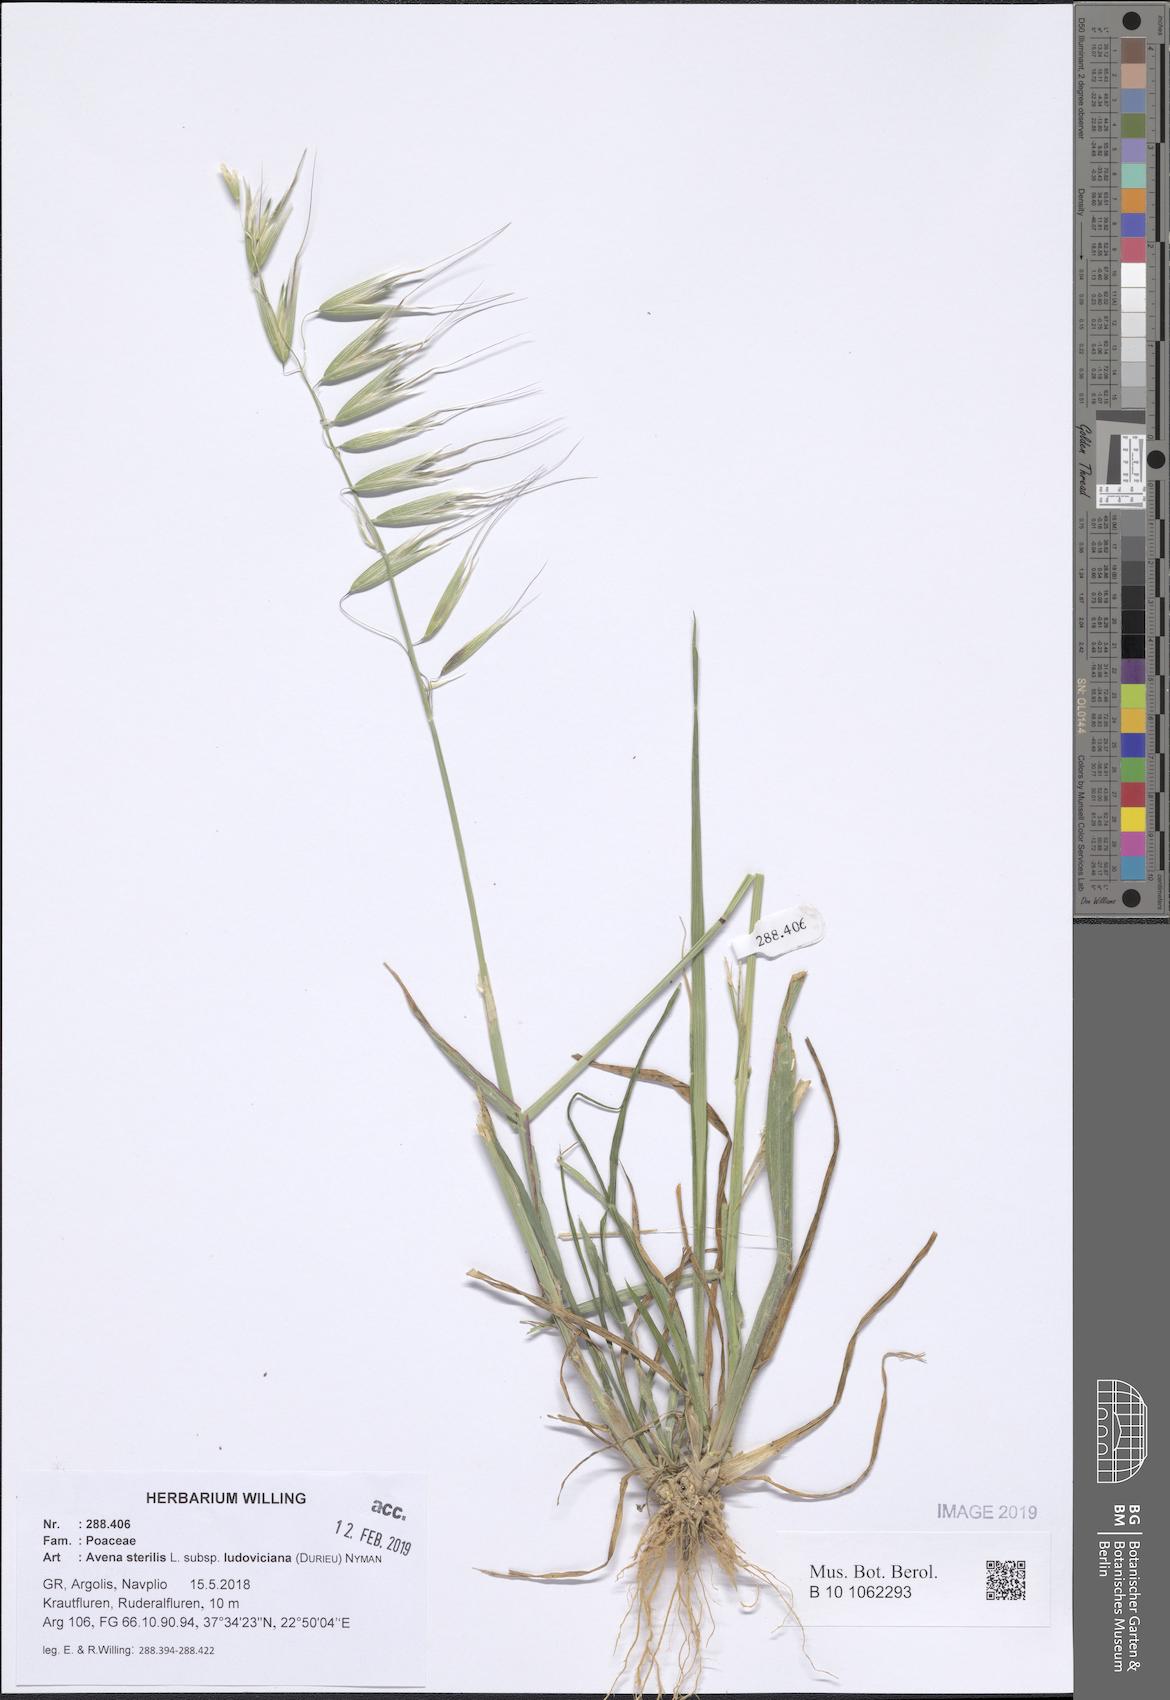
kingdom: Plantae
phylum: Tracheophyta
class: Liliopsida
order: Poales
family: Poaceae
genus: Avena
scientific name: Avena sterilis
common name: Animated oat
